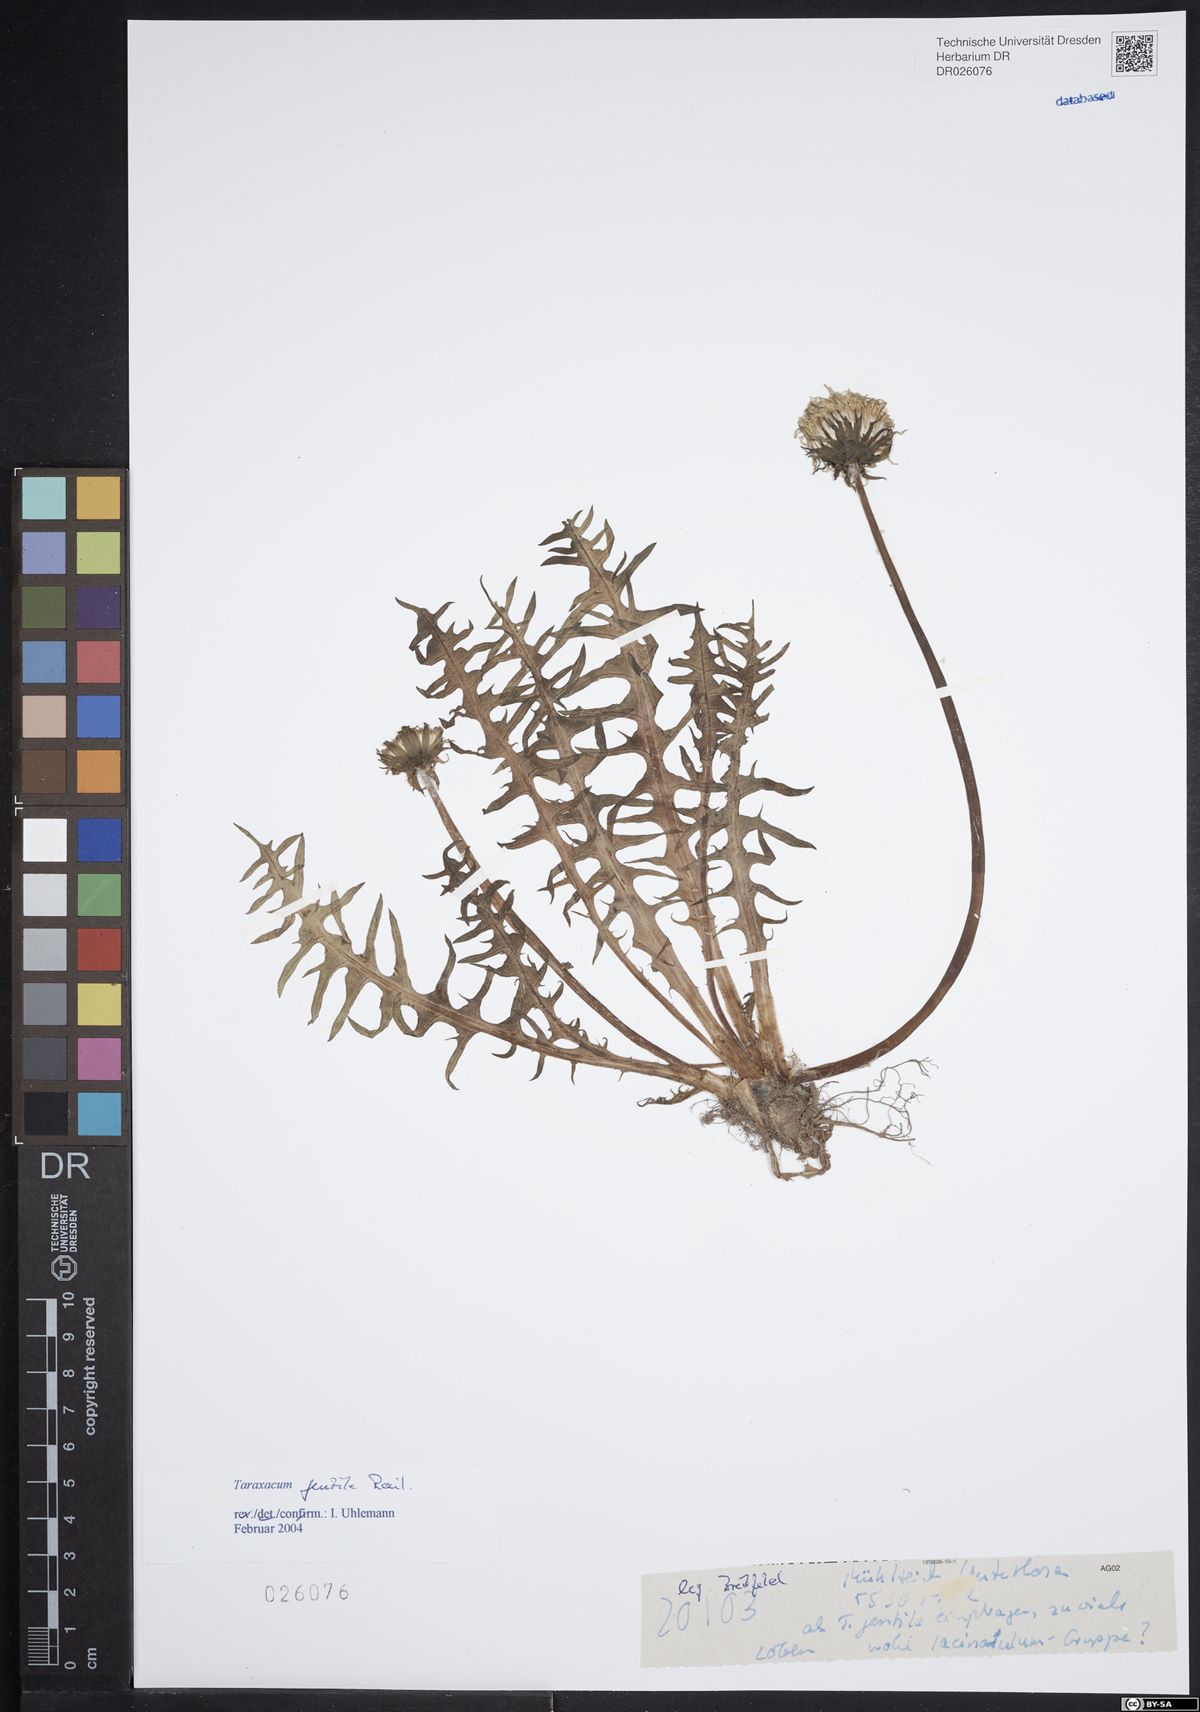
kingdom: Plantae
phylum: Tracheophyta
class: Magnoliopsida
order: Asterales
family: Asteraceae
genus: Taraxacum
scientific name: Taraxacum gentile
